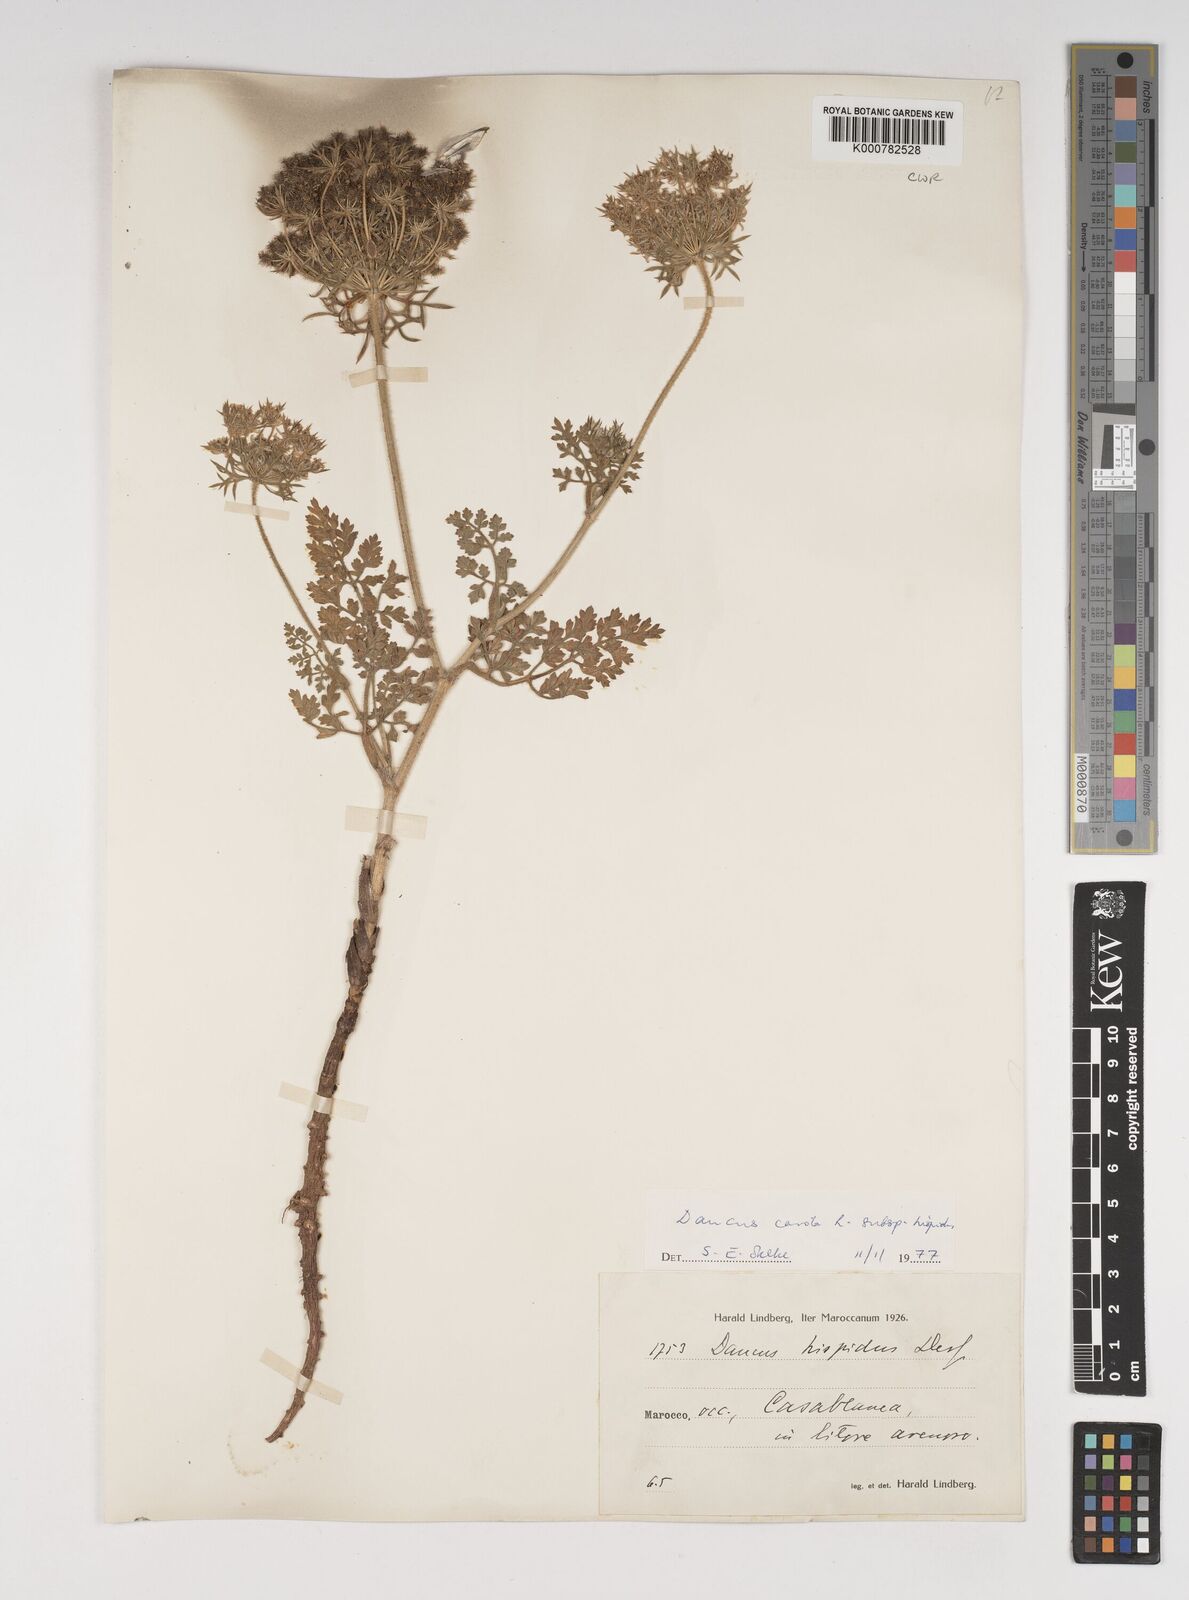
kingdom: Plantae
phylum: Tracheophyta
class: Magnoliopsida
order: Apiales
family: Apiaceae
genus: Daucus
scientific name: Daucus carota
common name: Wild carrot
